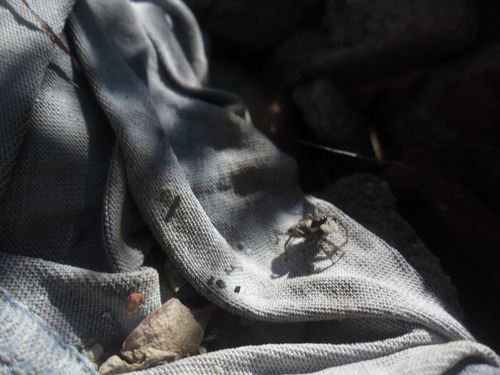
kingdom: Animalia
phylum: Arthropoda
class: Arachnida
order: Araneae
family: Salticidae
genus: Menemerus
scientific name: Menemerus semilimbatus
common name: Jumping spider
